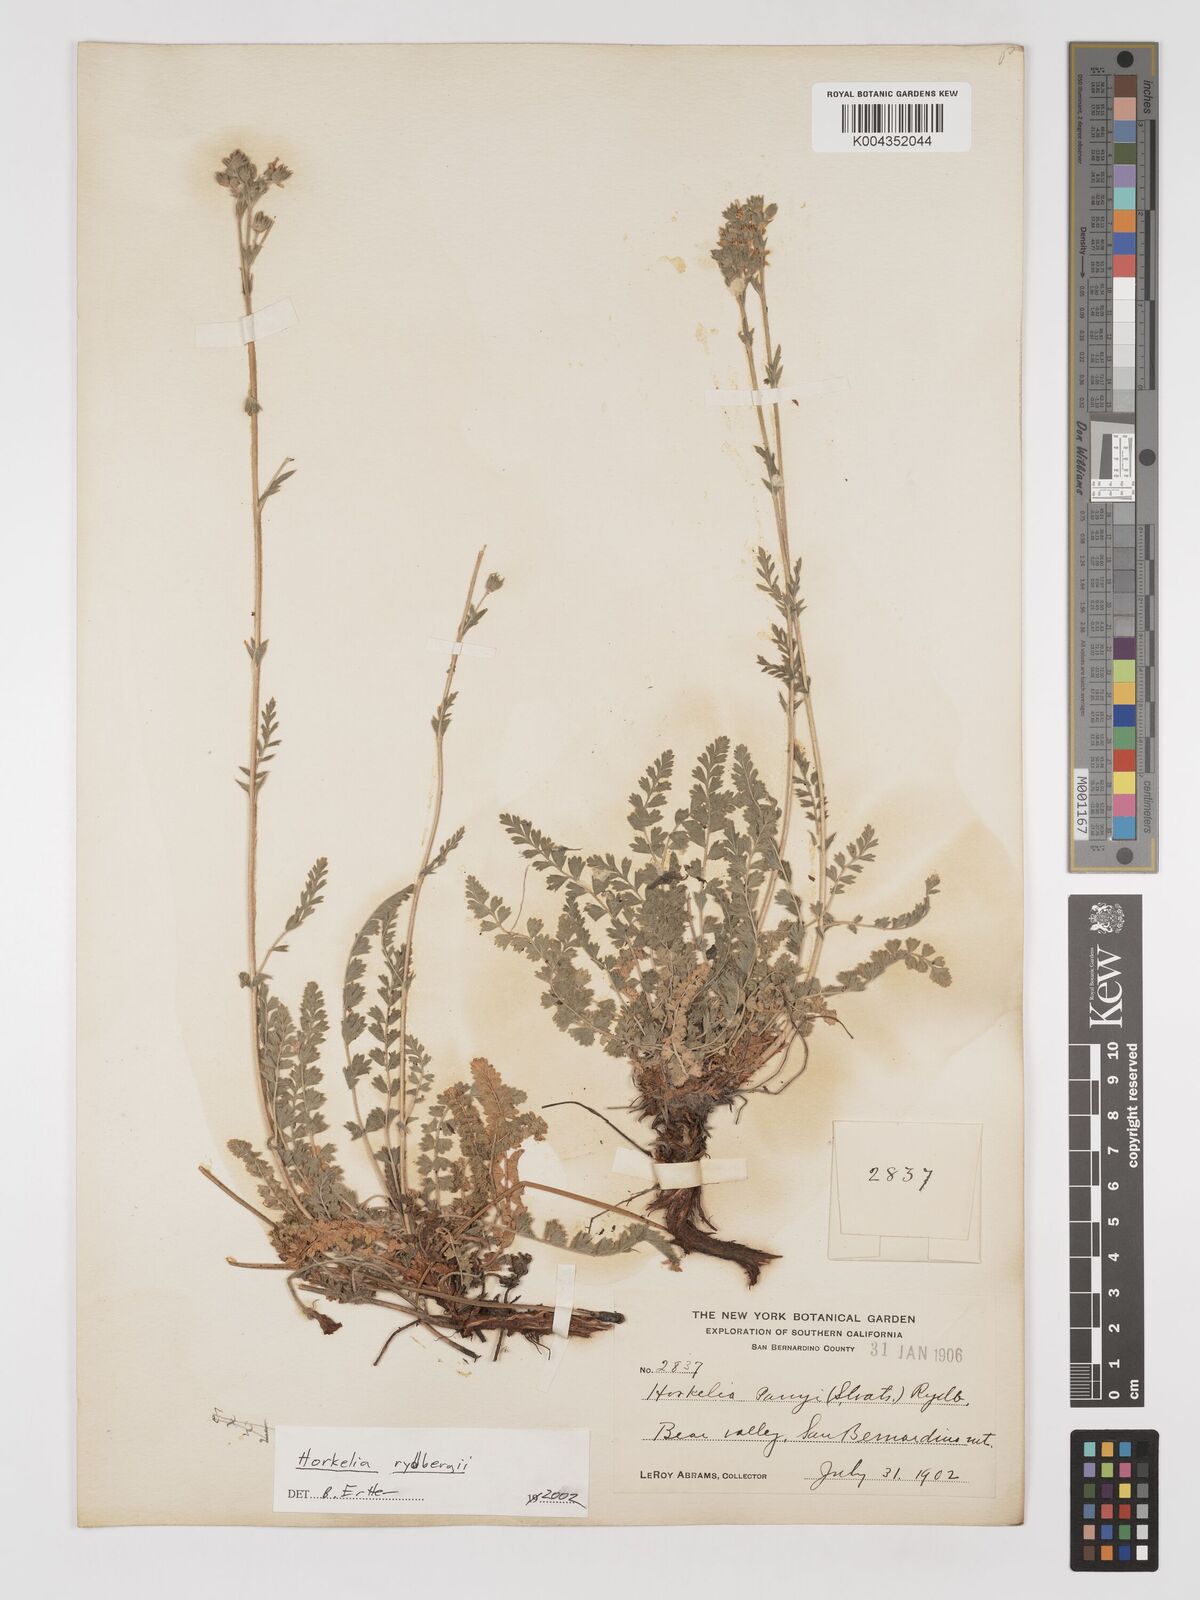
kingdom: Plantae
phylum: Tracheophyta
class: Magnoliopsida
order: Rosales
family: Rosaceae
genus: Potentilla
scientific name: Potentilla rydbergii
